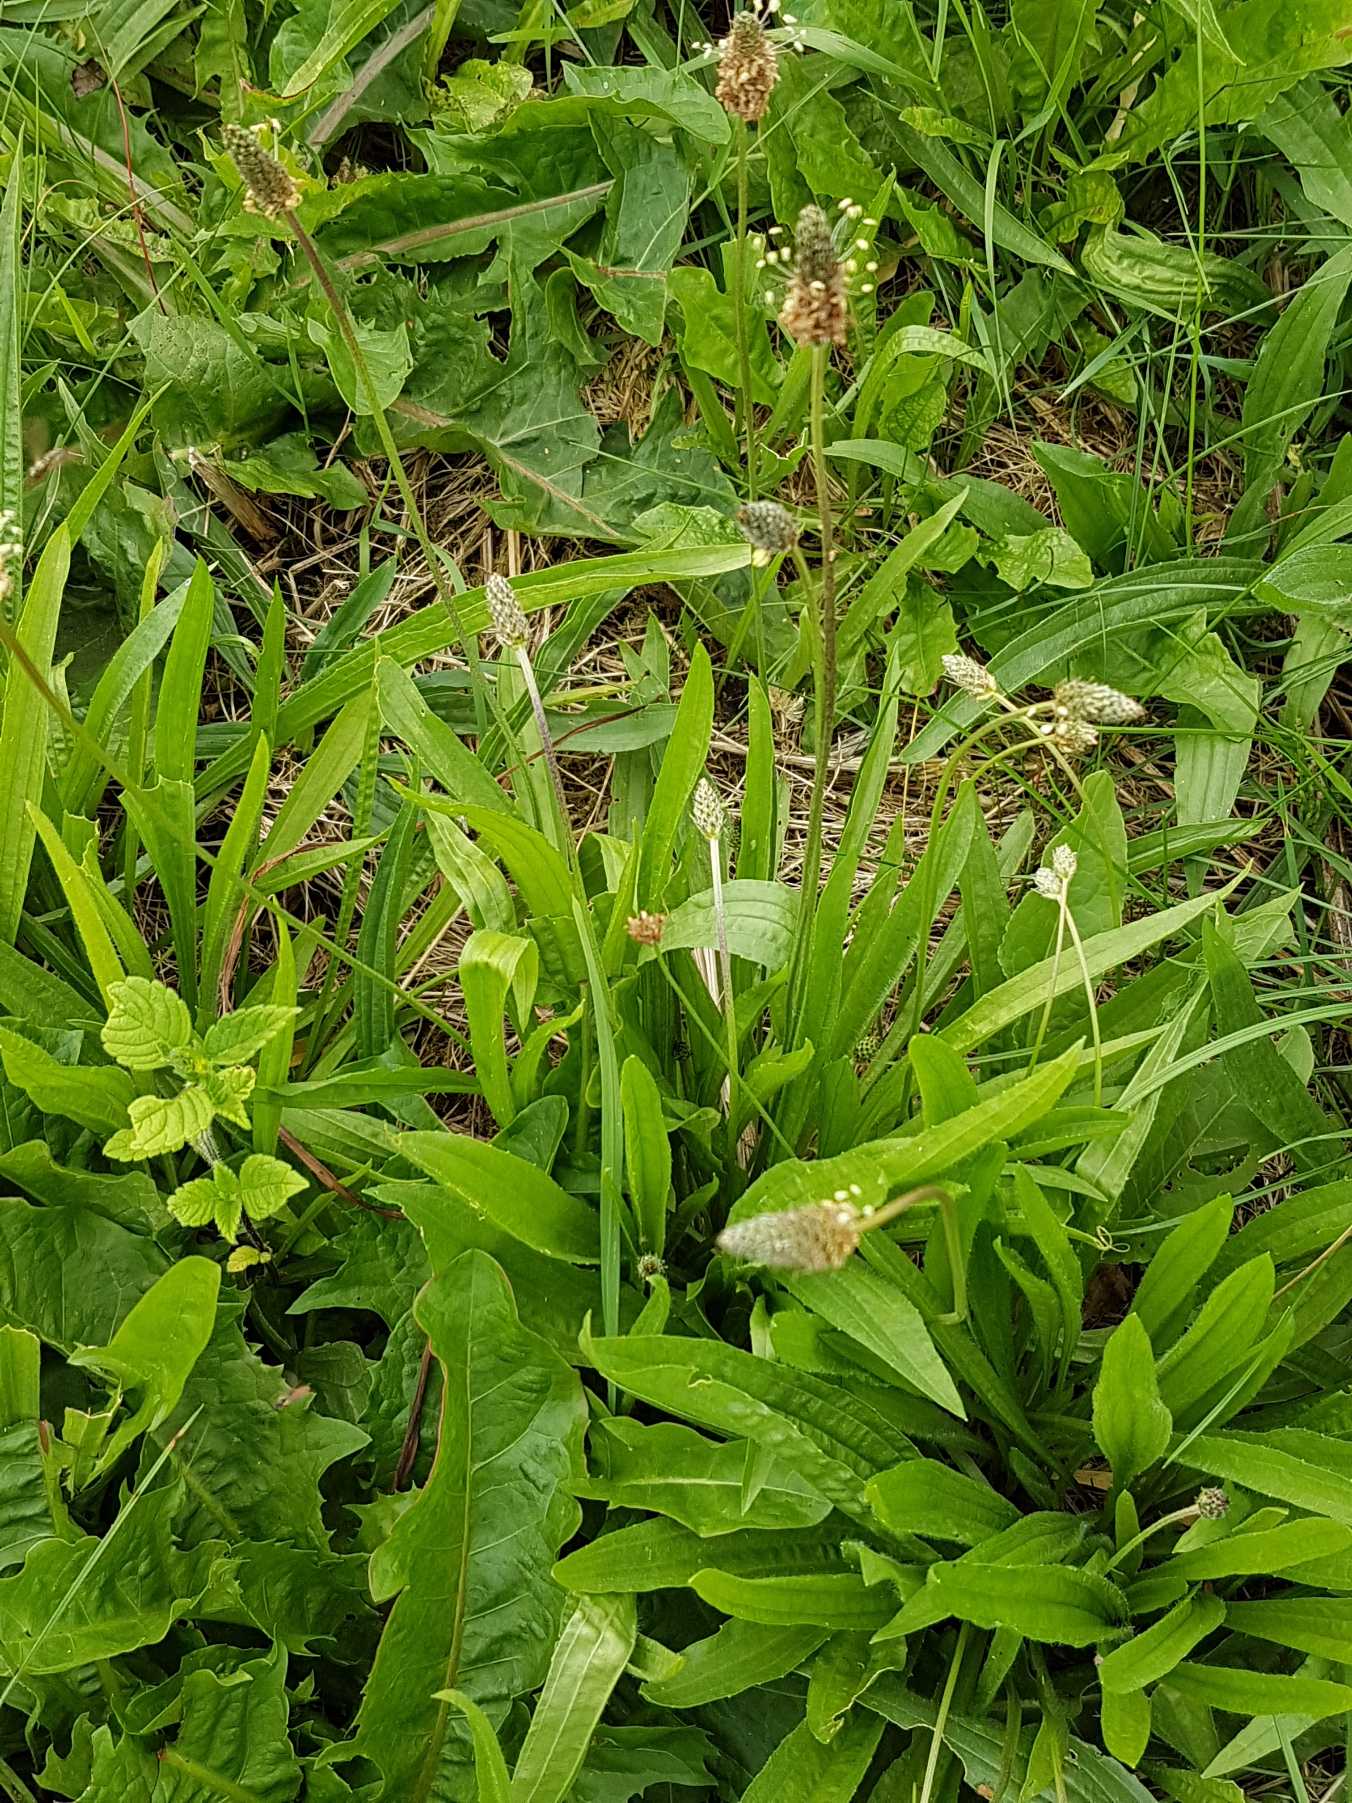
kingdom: Plantae
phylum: Tracheophyta
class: Magnoliopsida
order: Lamiales
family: Plantaginaceae
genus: Plantago
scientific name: Plantago lanceolata
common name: Lancet-vejbred
